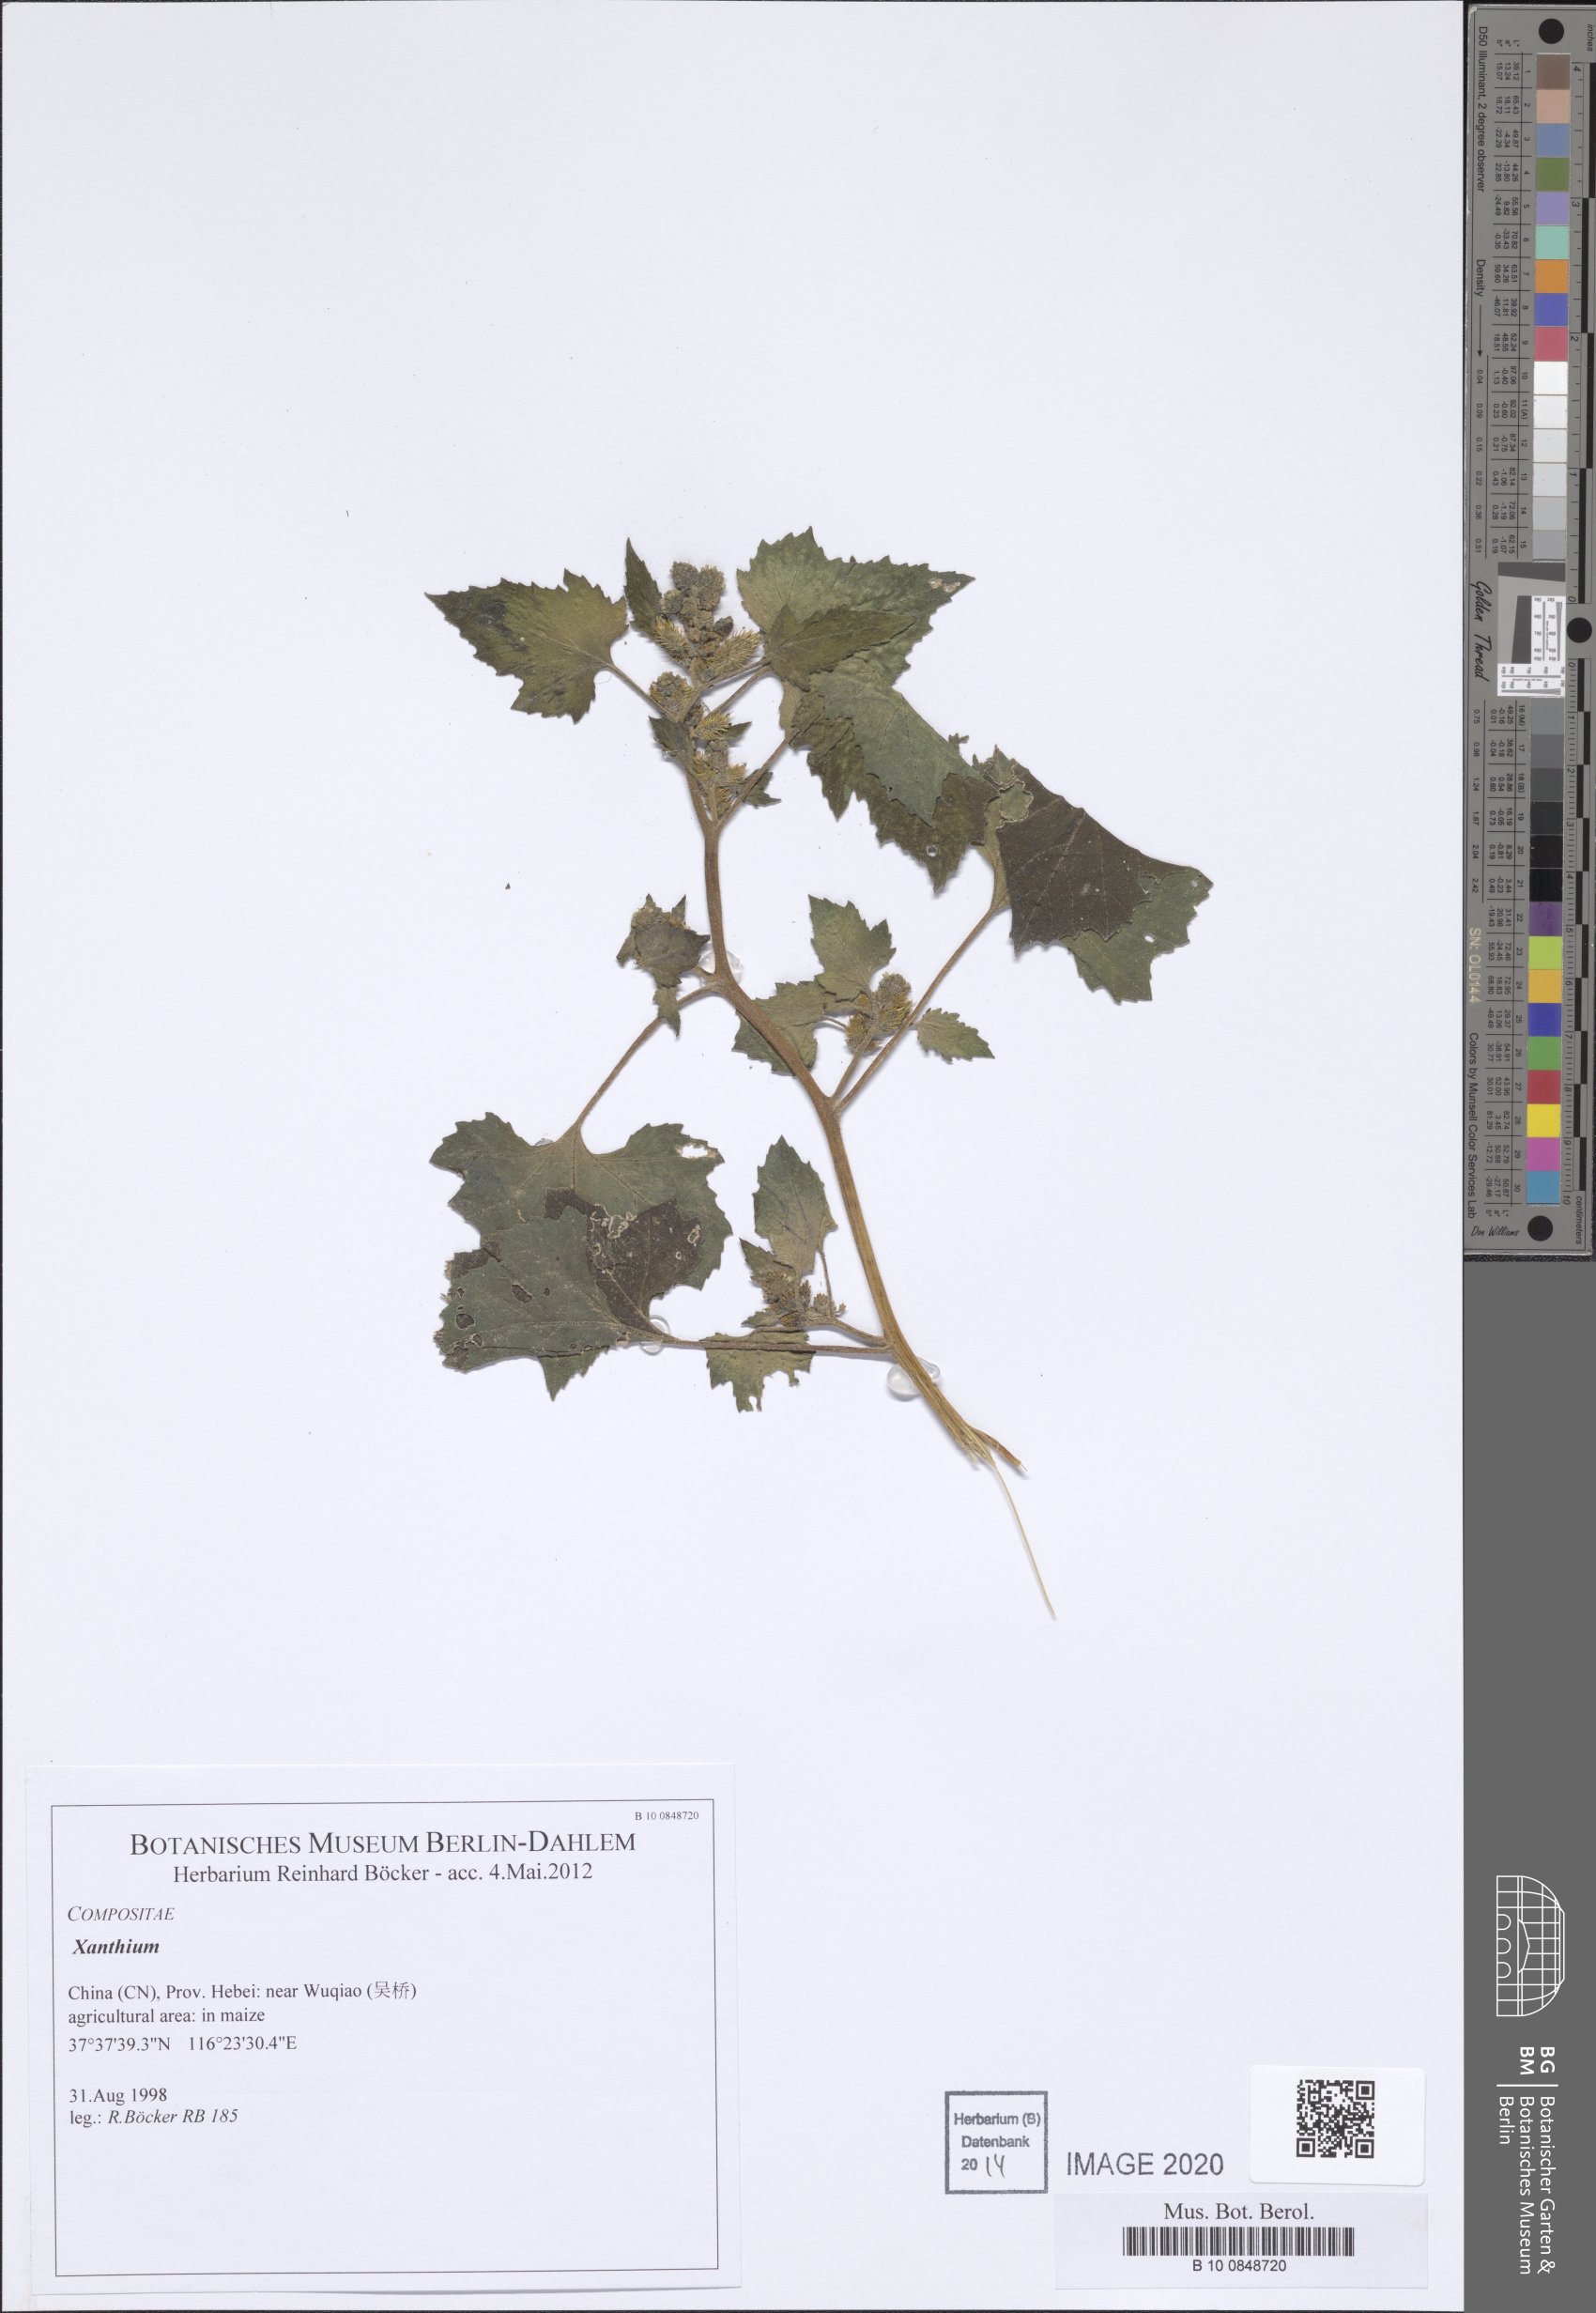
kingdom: Plantae
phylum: Tracheophyta
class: Magnoliopsida
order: Asterales
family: Asteraceae
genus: Xanthium
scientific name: Xanthium
